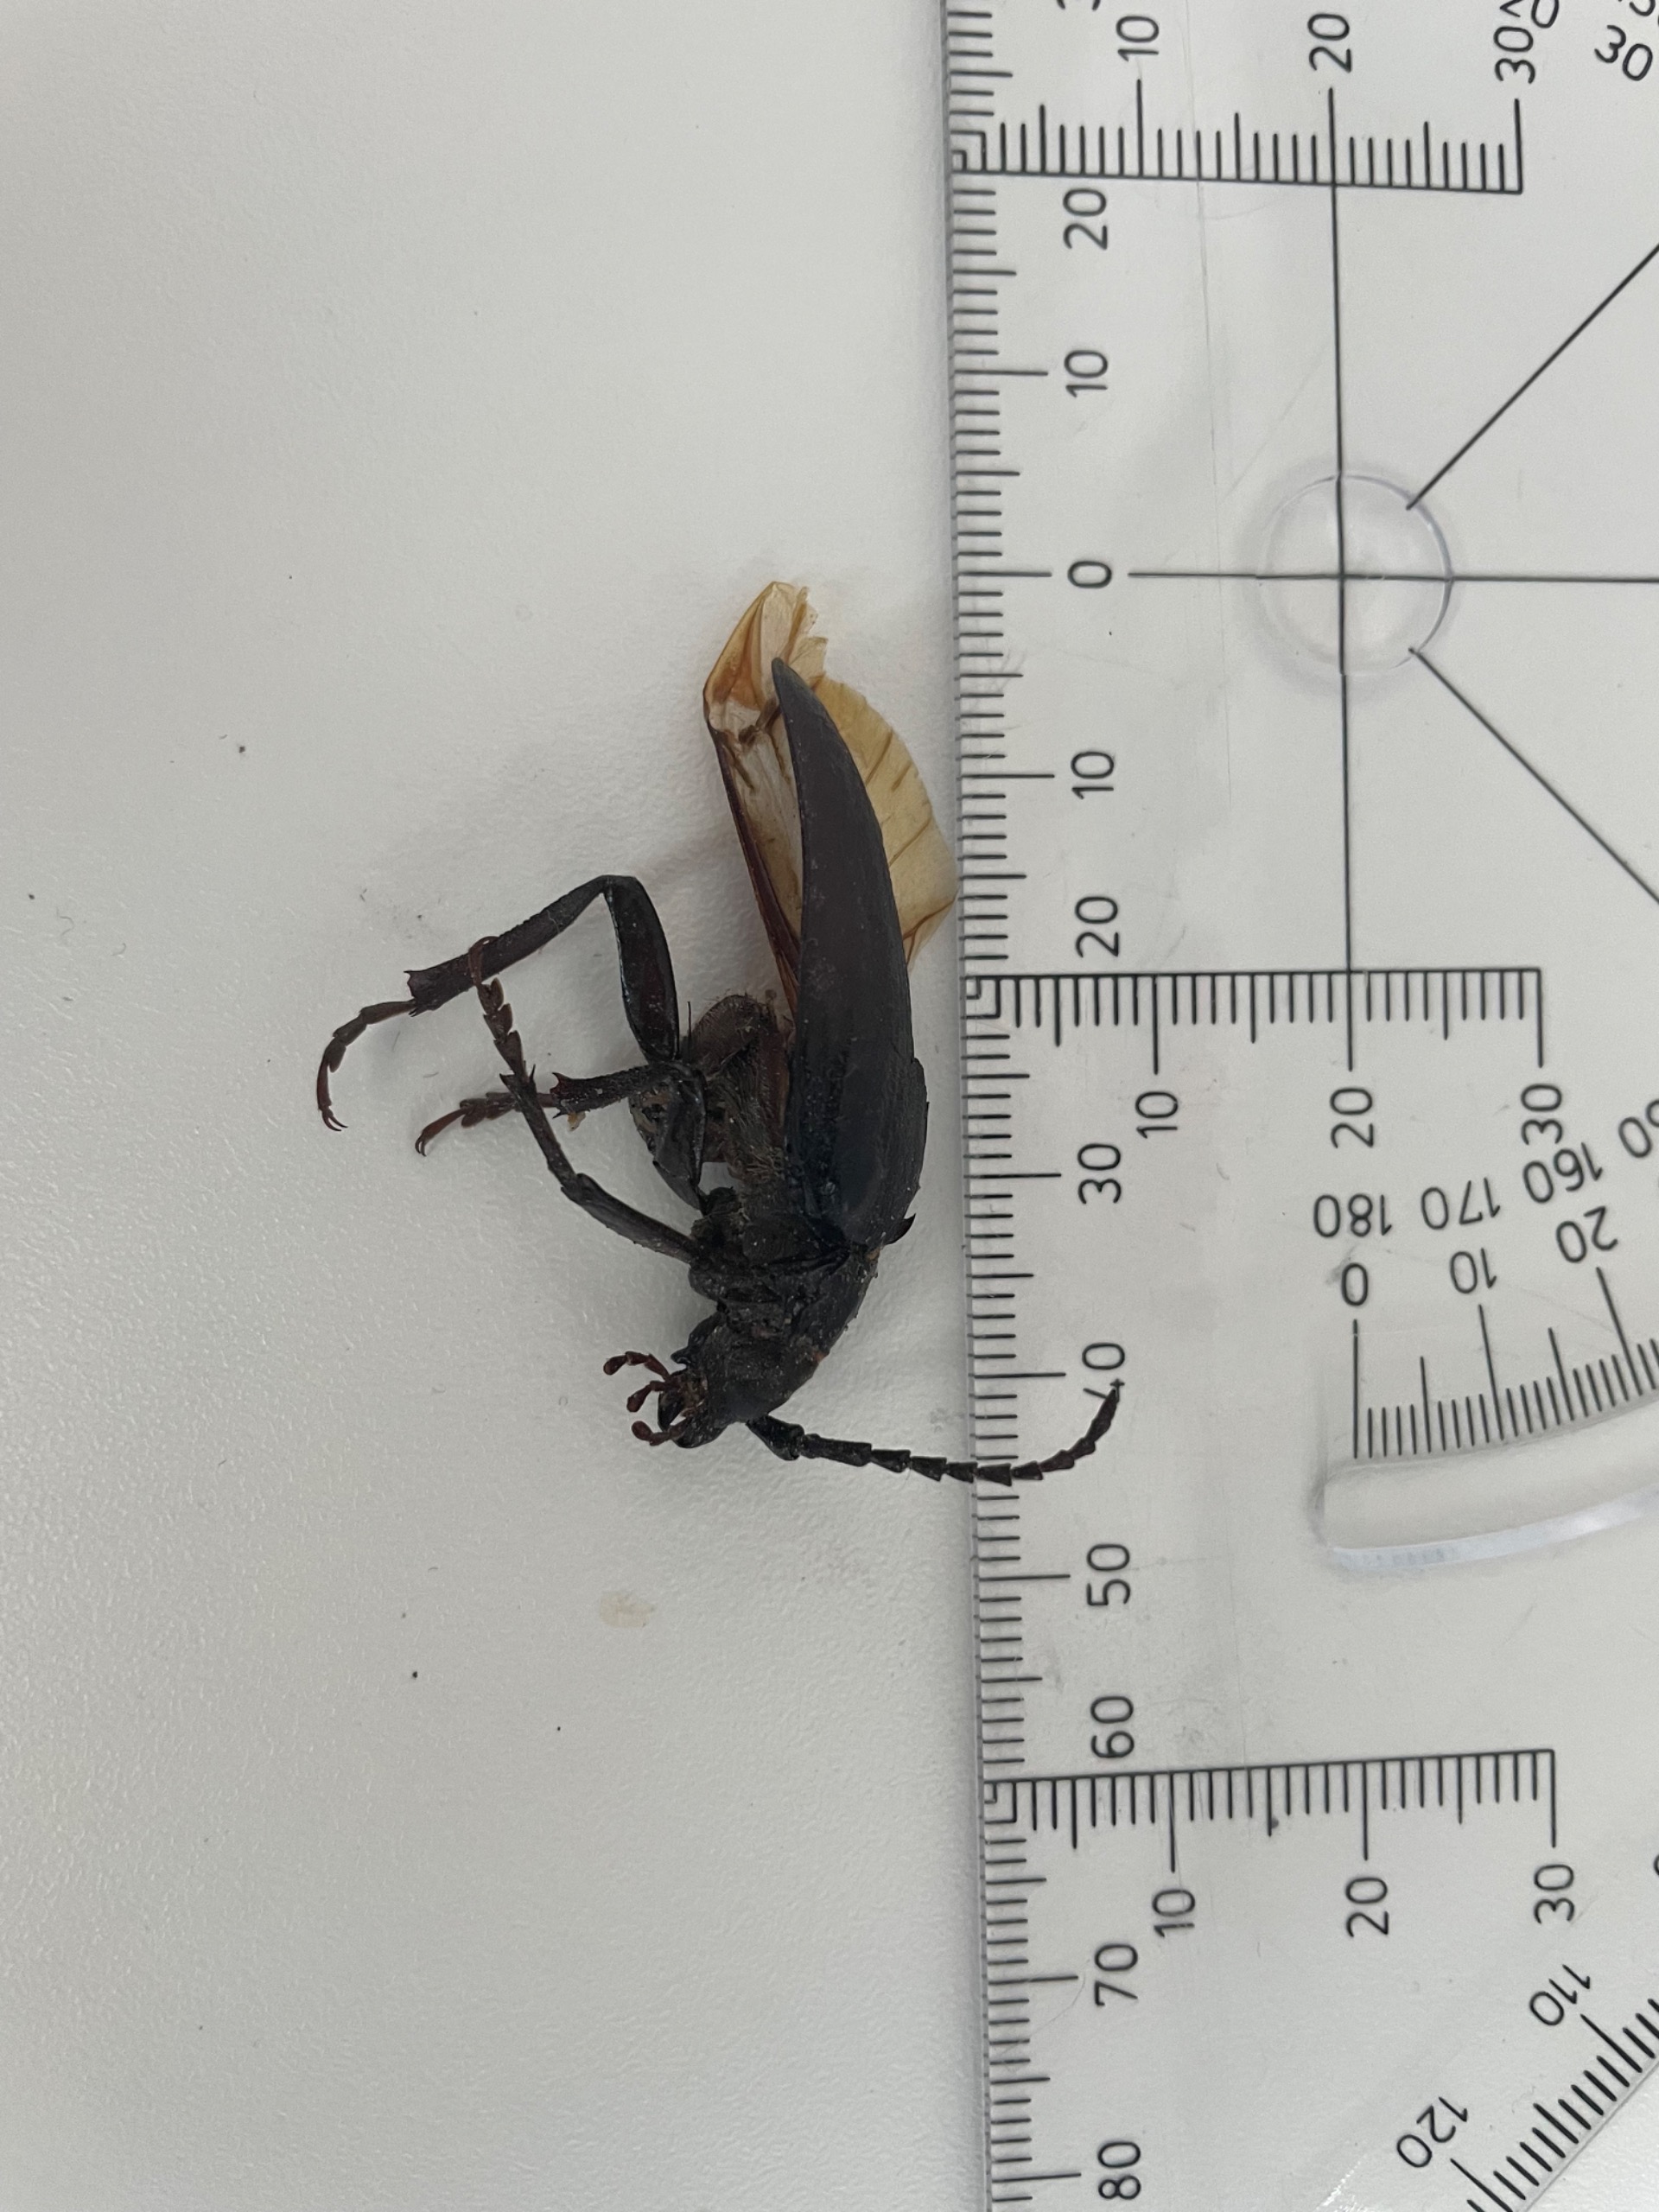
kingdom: Animalia
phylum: Arthropoda
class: Insecta
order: Coleoptera
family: Cerambycidae
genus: Prionus
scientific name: Prionus coriarius
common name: Garver
